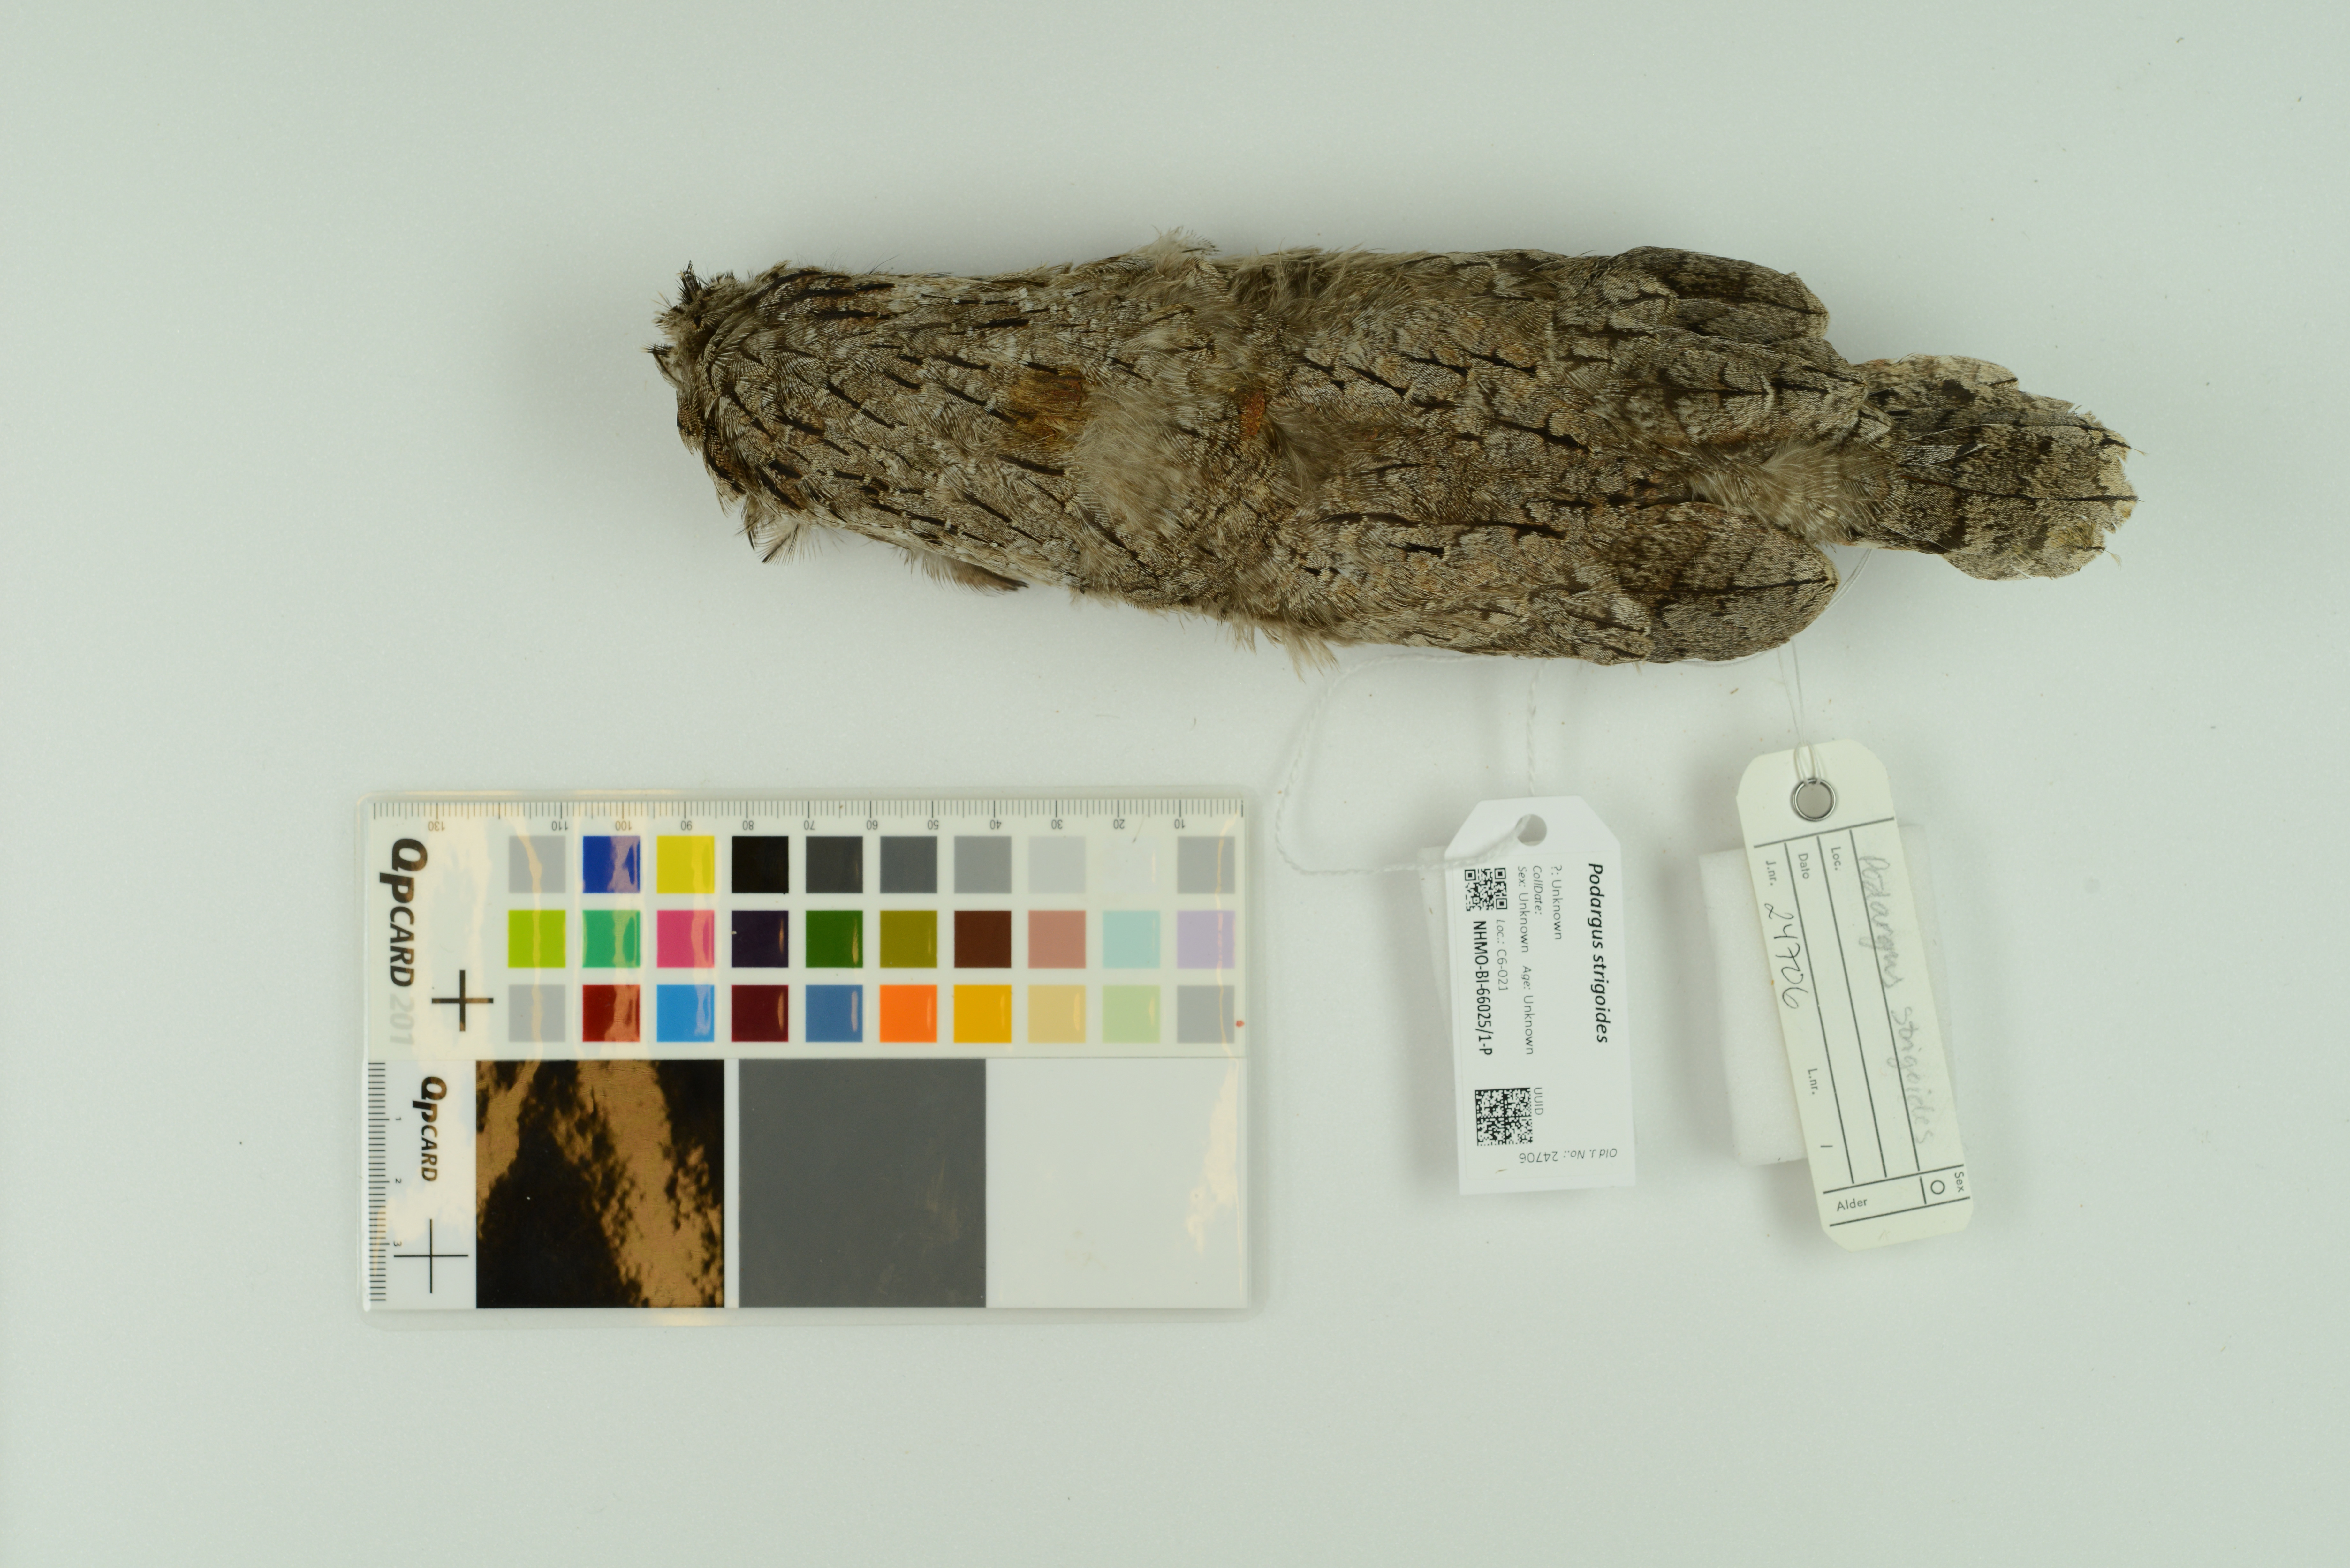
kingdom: Animalia
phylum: Chordata
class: Aves
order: Caprimulgiformes
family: Podargidae
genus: Podargus
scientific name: Podargus strigoides
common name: Tawny frogmouth
